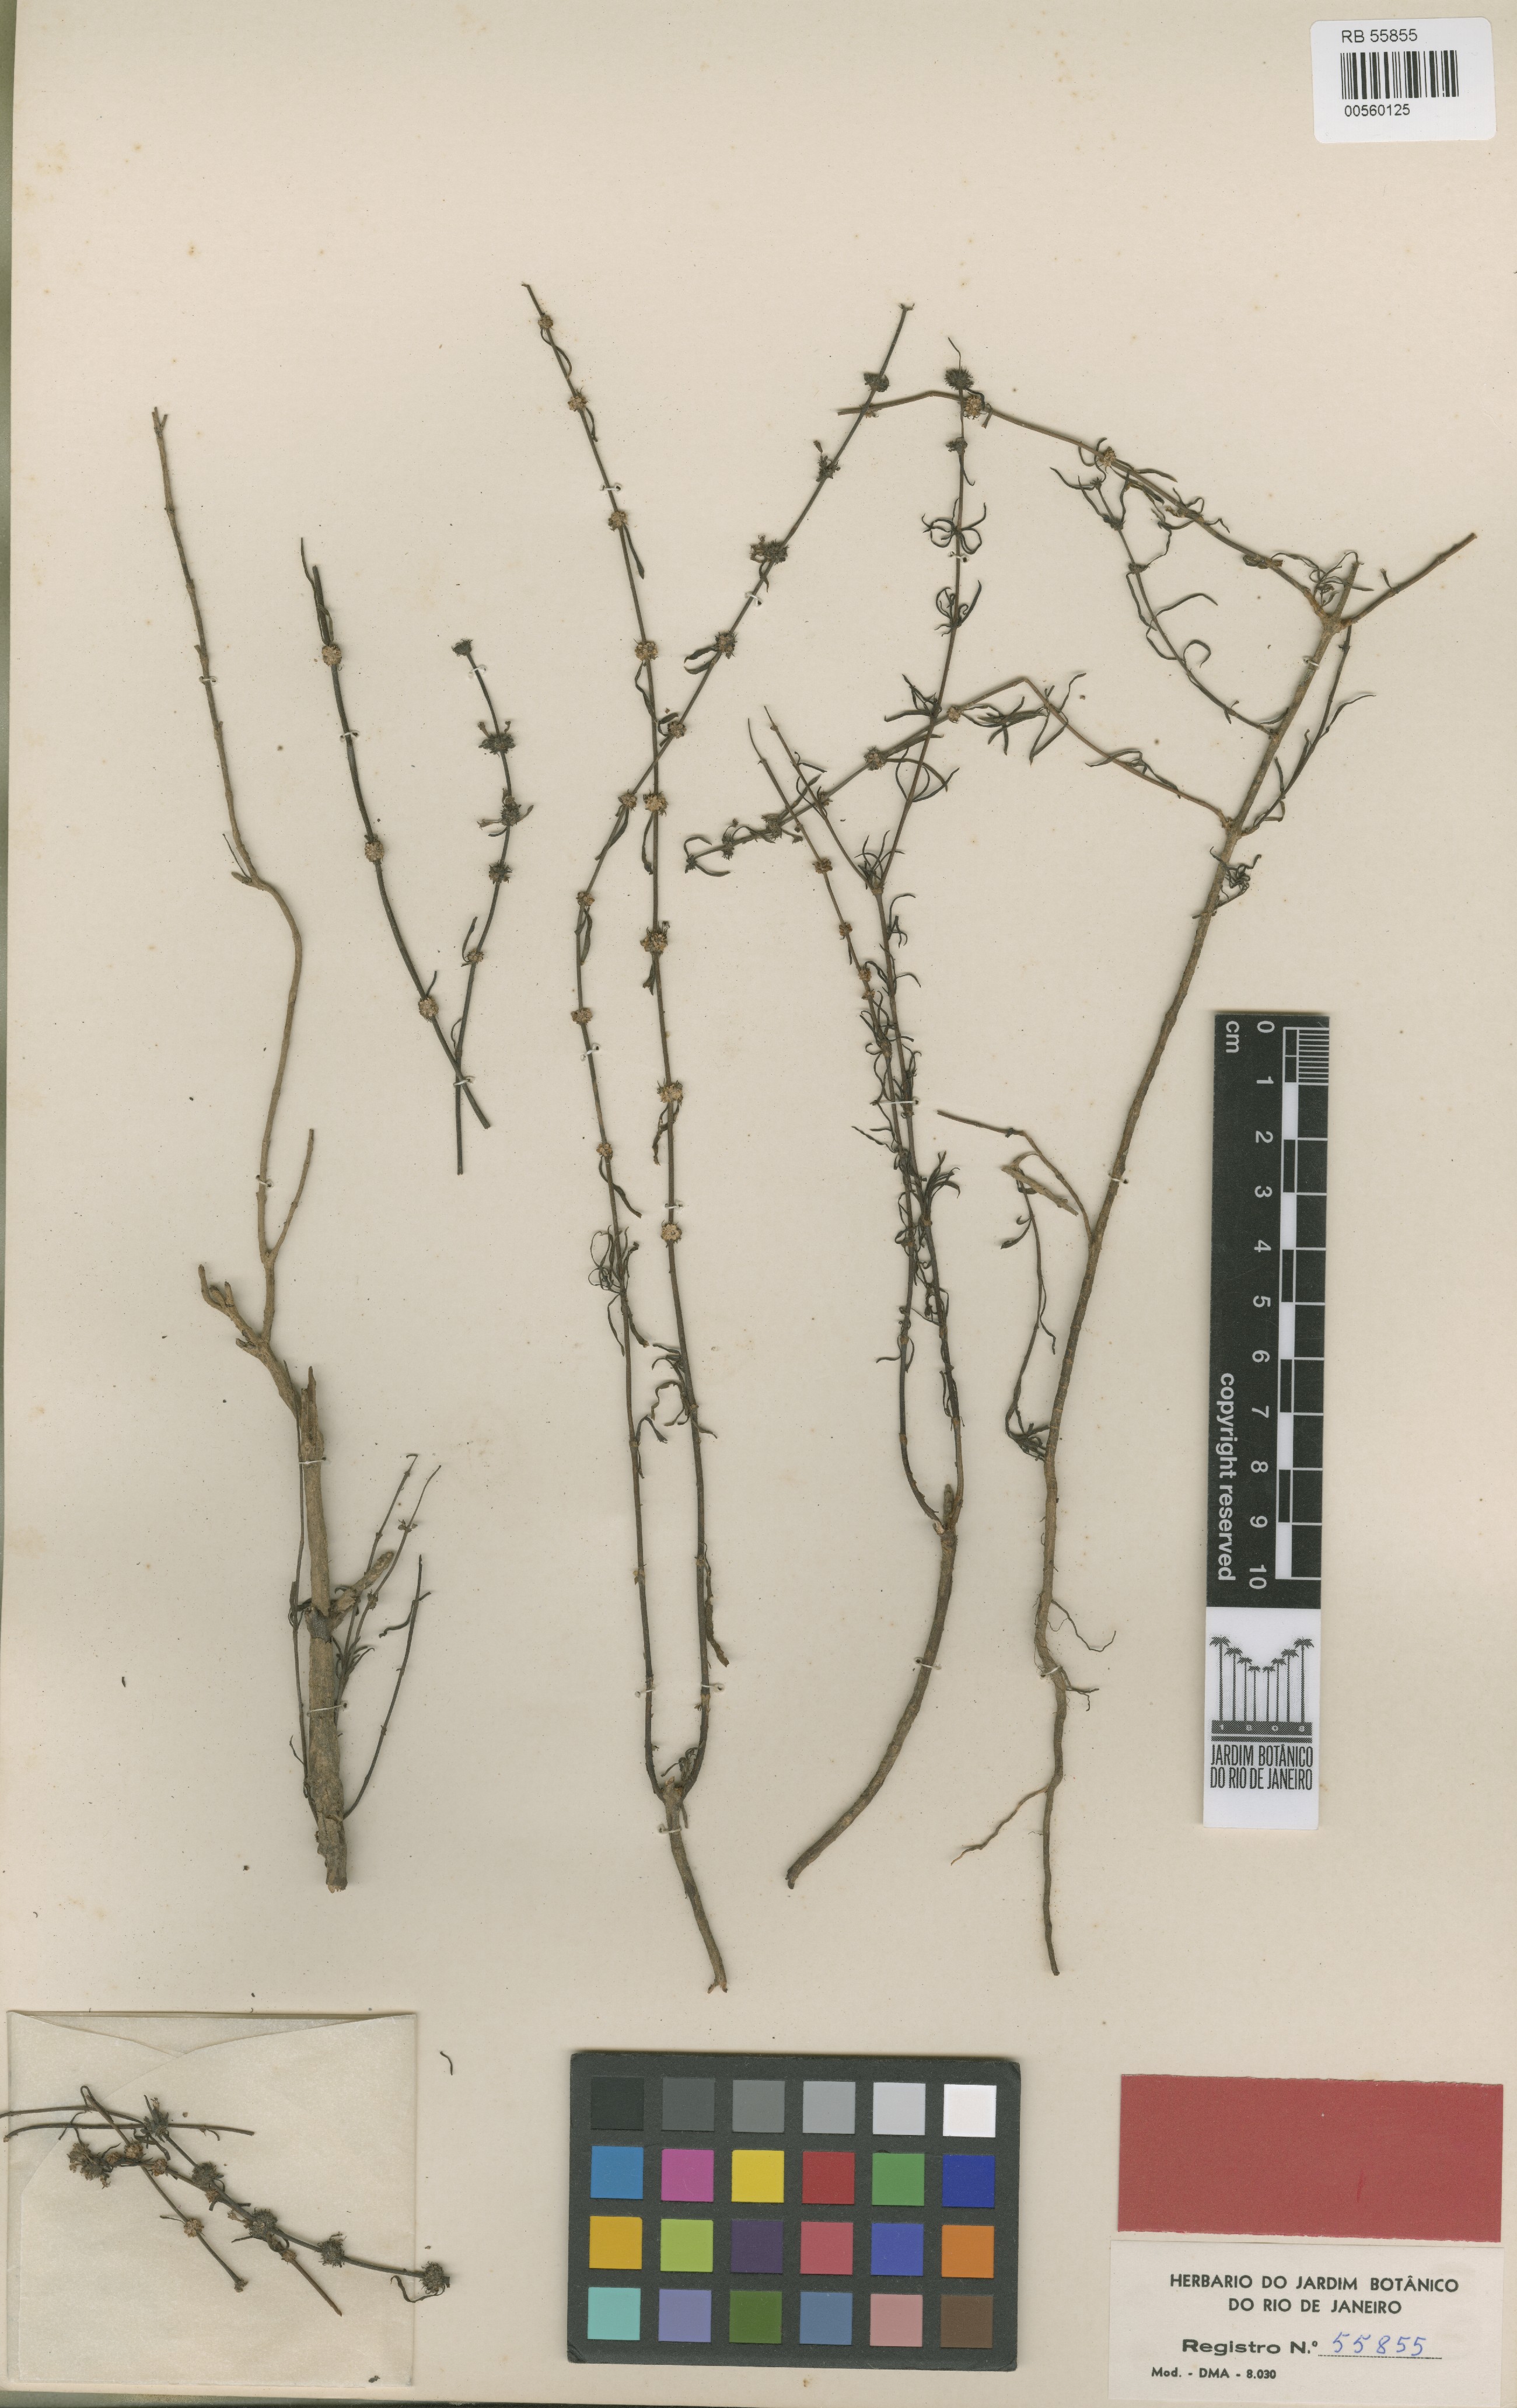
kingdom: Plantae
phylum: Tracheophyta
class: Magnoliopsida
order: Gentianales
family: Rubiaceae
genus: Mitracarpus
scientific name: Mitracarpus rizzinianus
